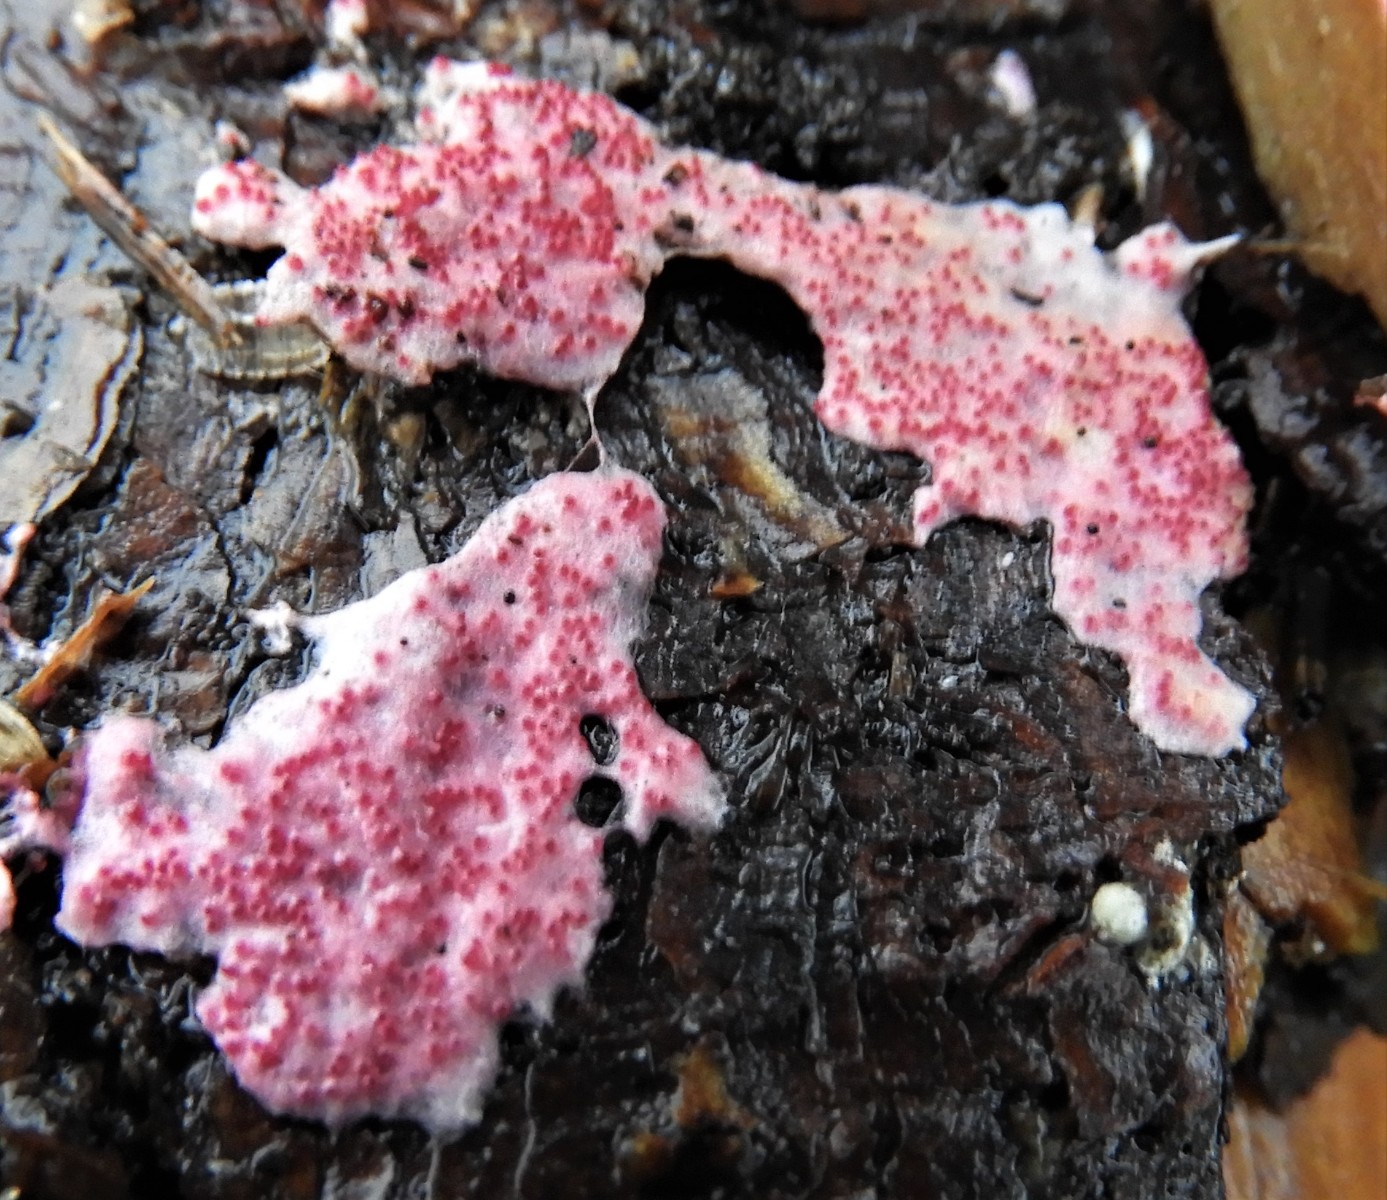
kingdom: Fungi
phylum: Ascomycota
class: Sordariomycetes
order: Hypocreales
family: Hypocreaceae
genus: Hypomyces
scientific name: Hypomyces rosellus
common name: rosa snylteskorpe
